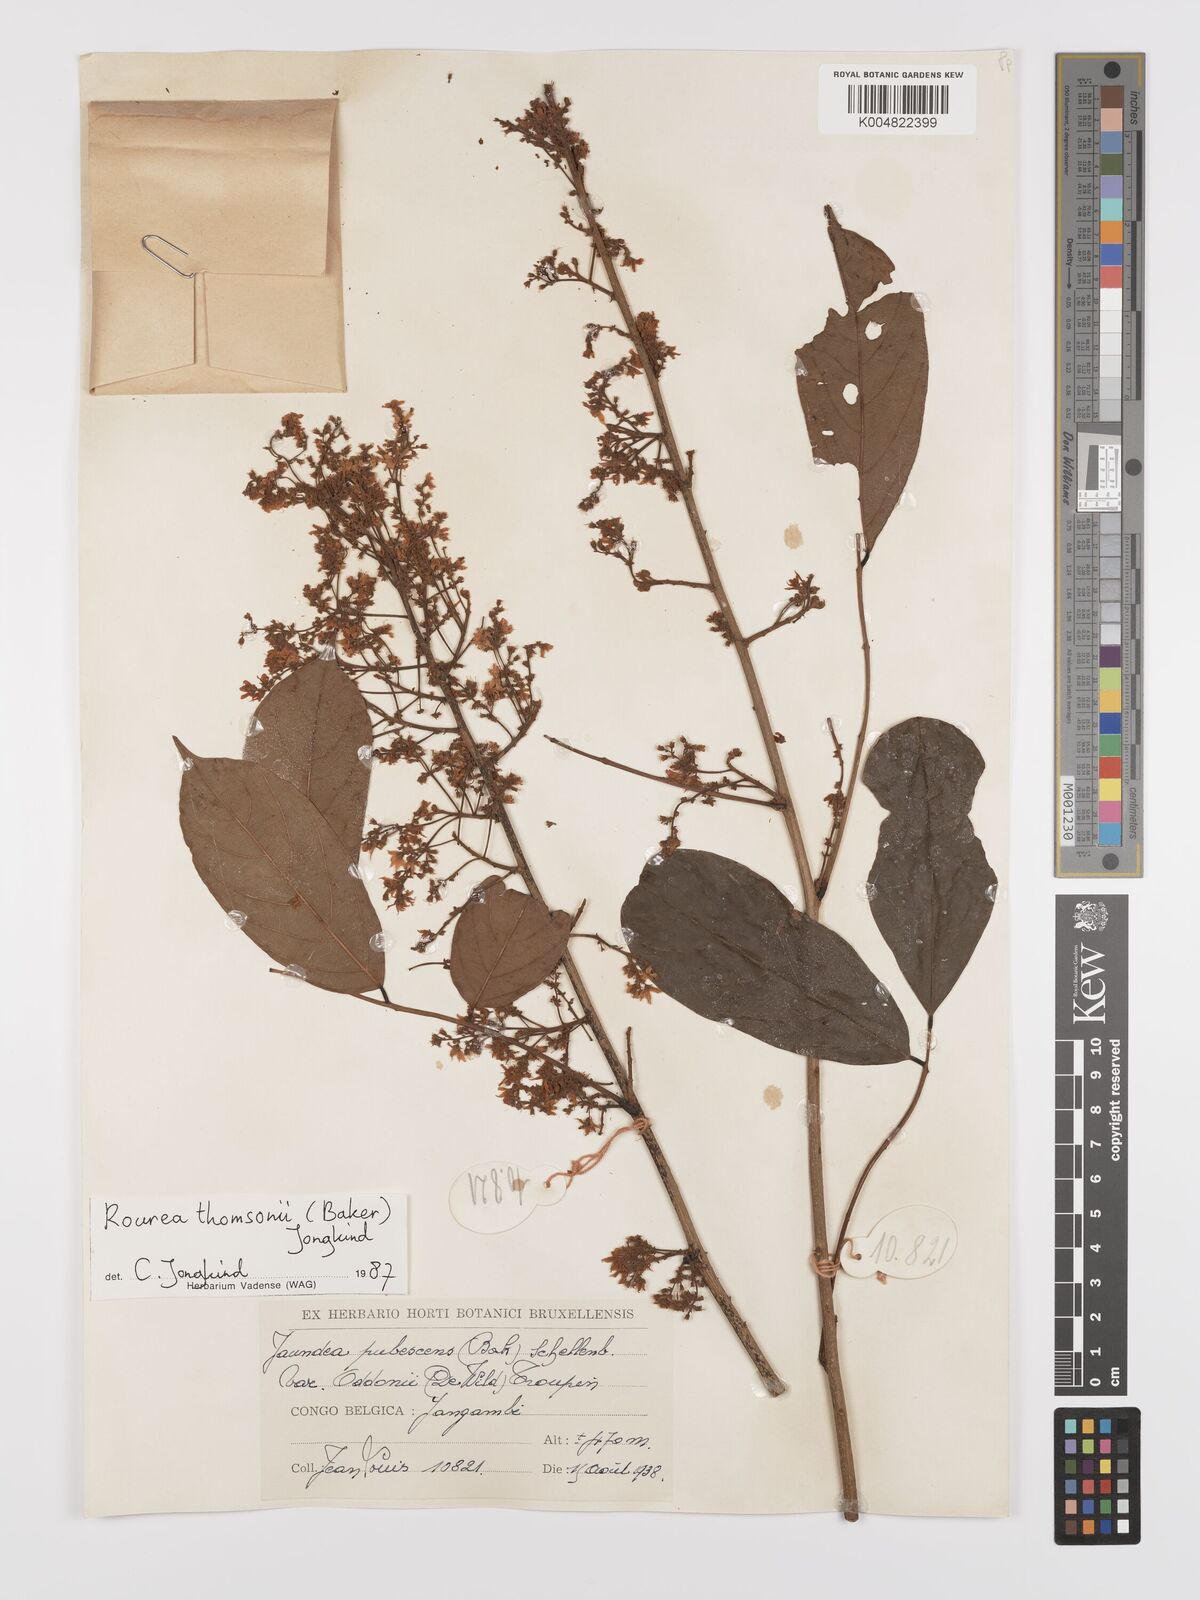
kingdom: Plantae
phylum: Tracheophyta
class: Magnoliopsida
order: Oxalidales
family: Connaraceae
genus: Rourea
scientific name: Rourea pubescens
